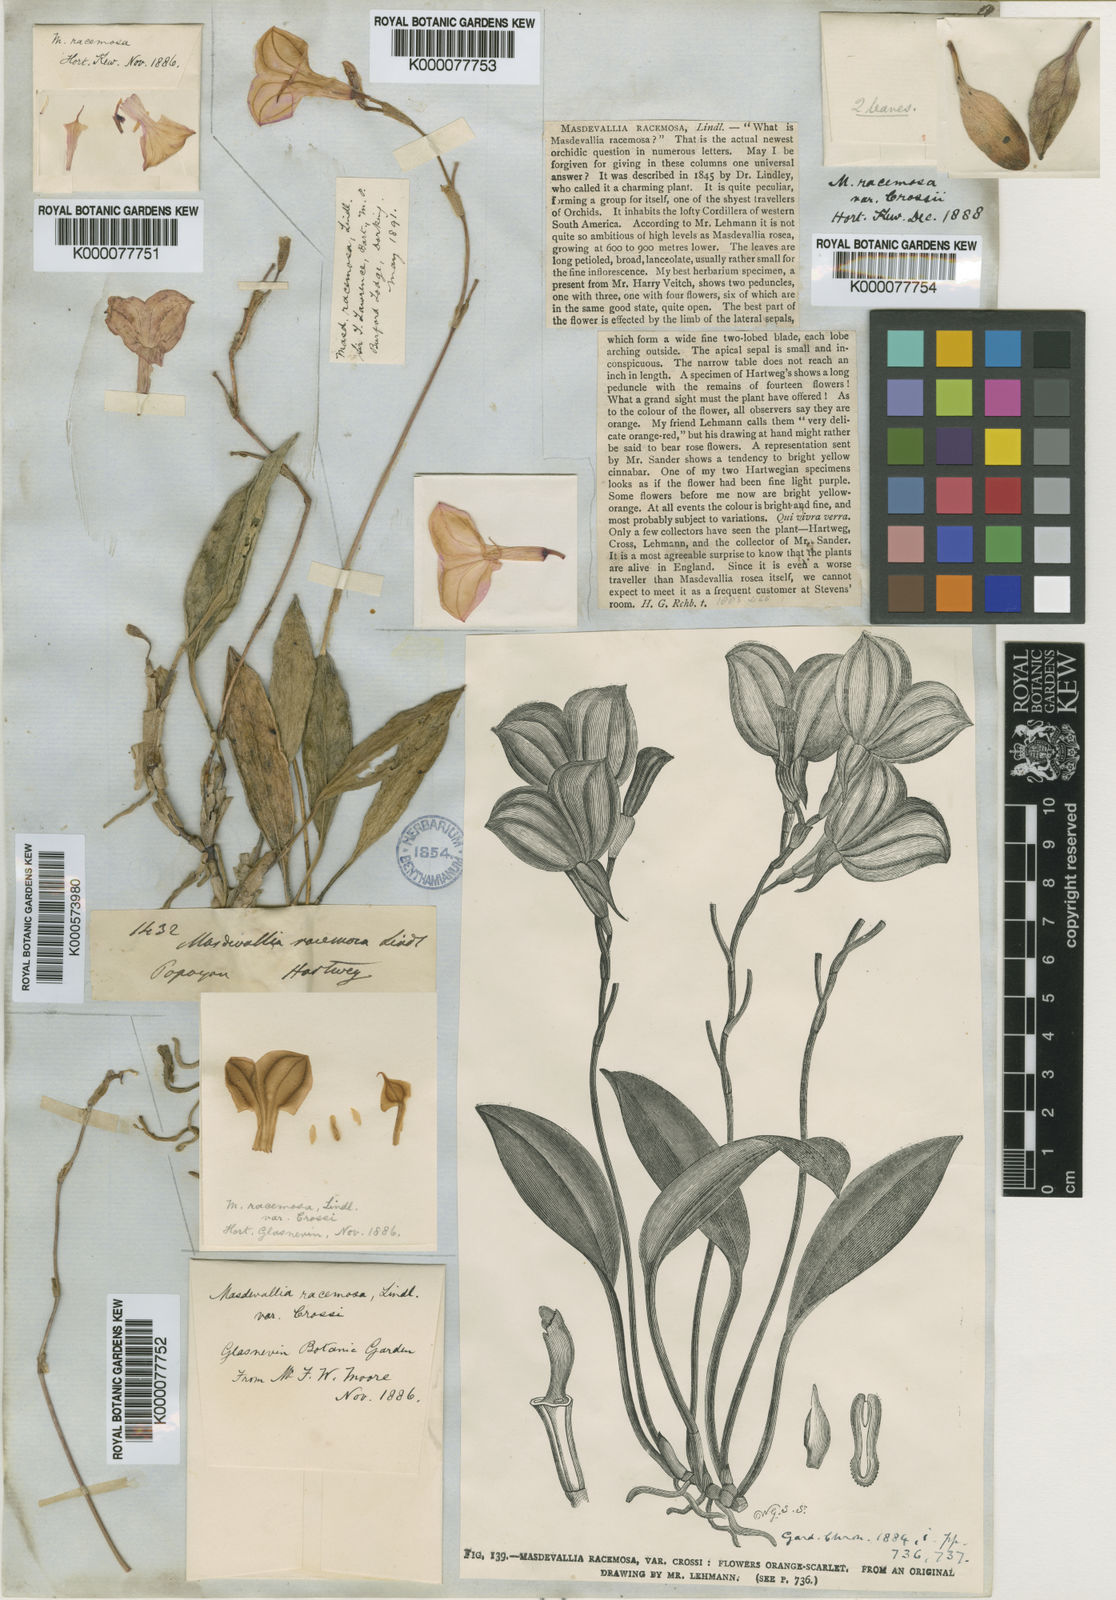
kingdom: Plantae
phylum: Tracheophyta
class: Liliopsida
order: Asparagales
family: Orchidaceae
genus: Masdevallia
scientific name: Masdevallia racemosa
